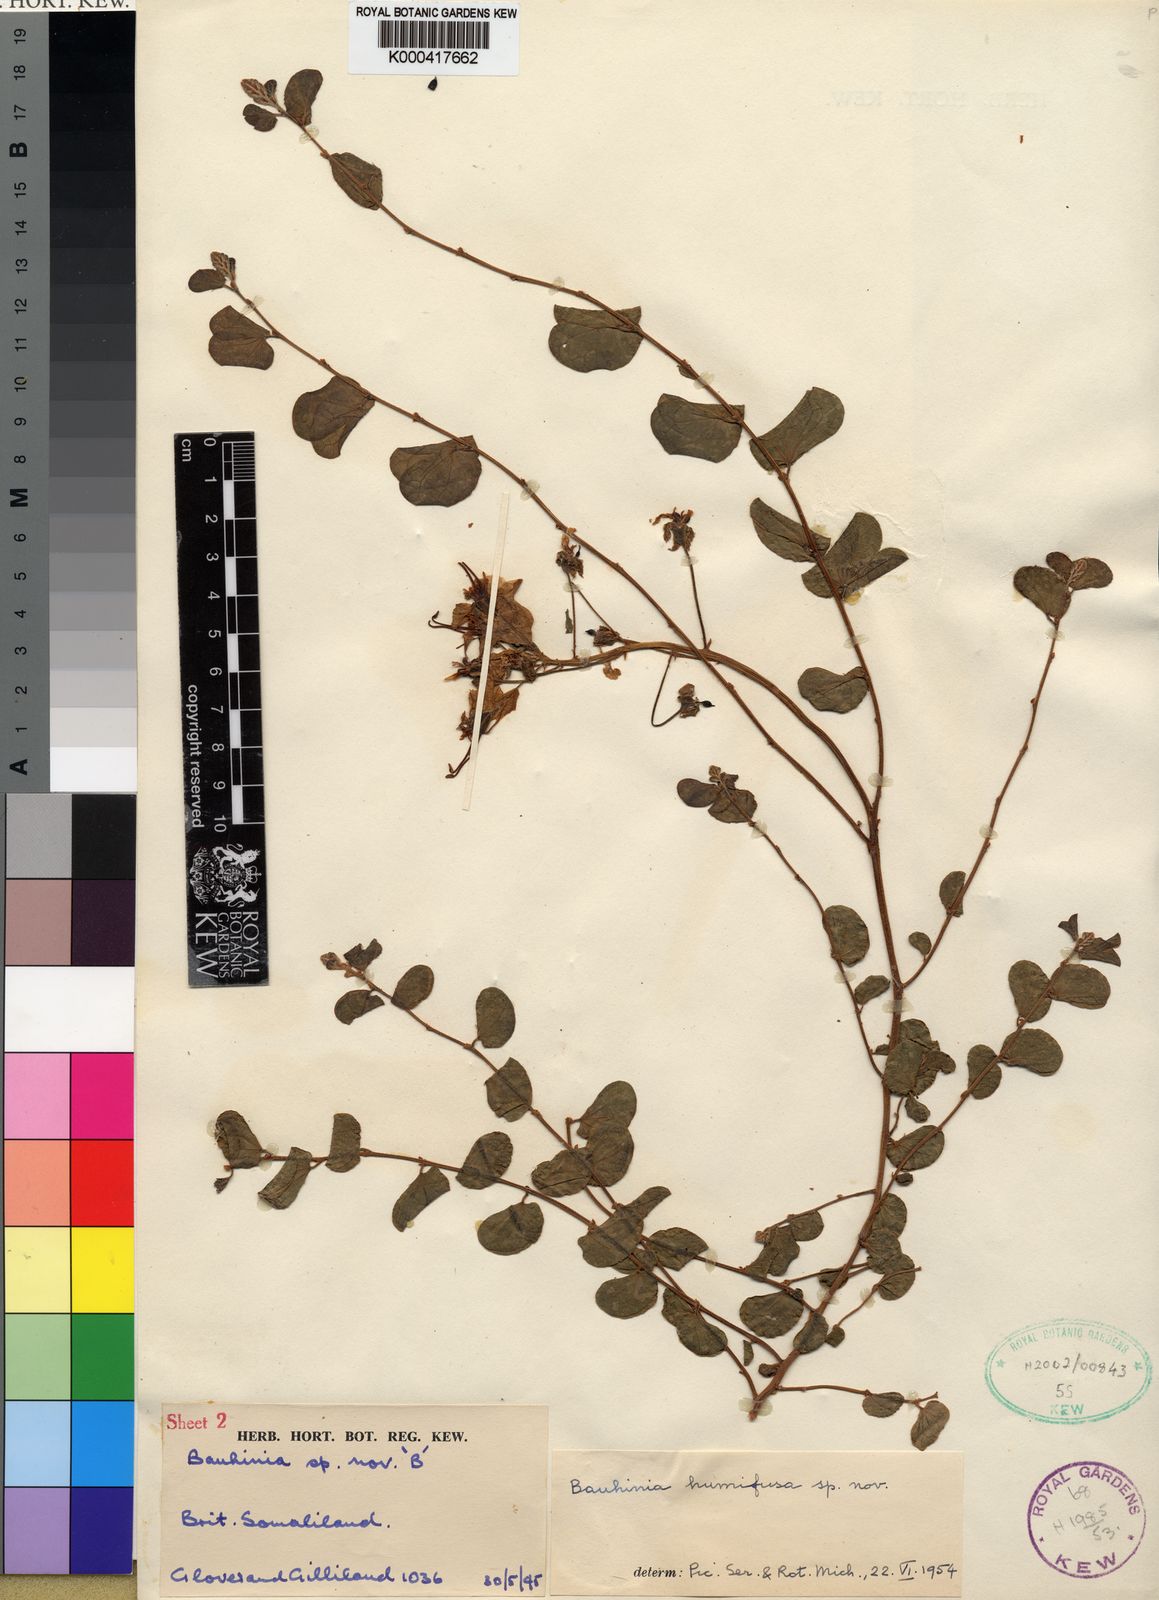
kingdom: Plantae
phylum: Tracheophyta
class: Magnoliopsida
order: Fabales
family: Fabaceae
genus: Tylosema
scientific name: Tylosema
